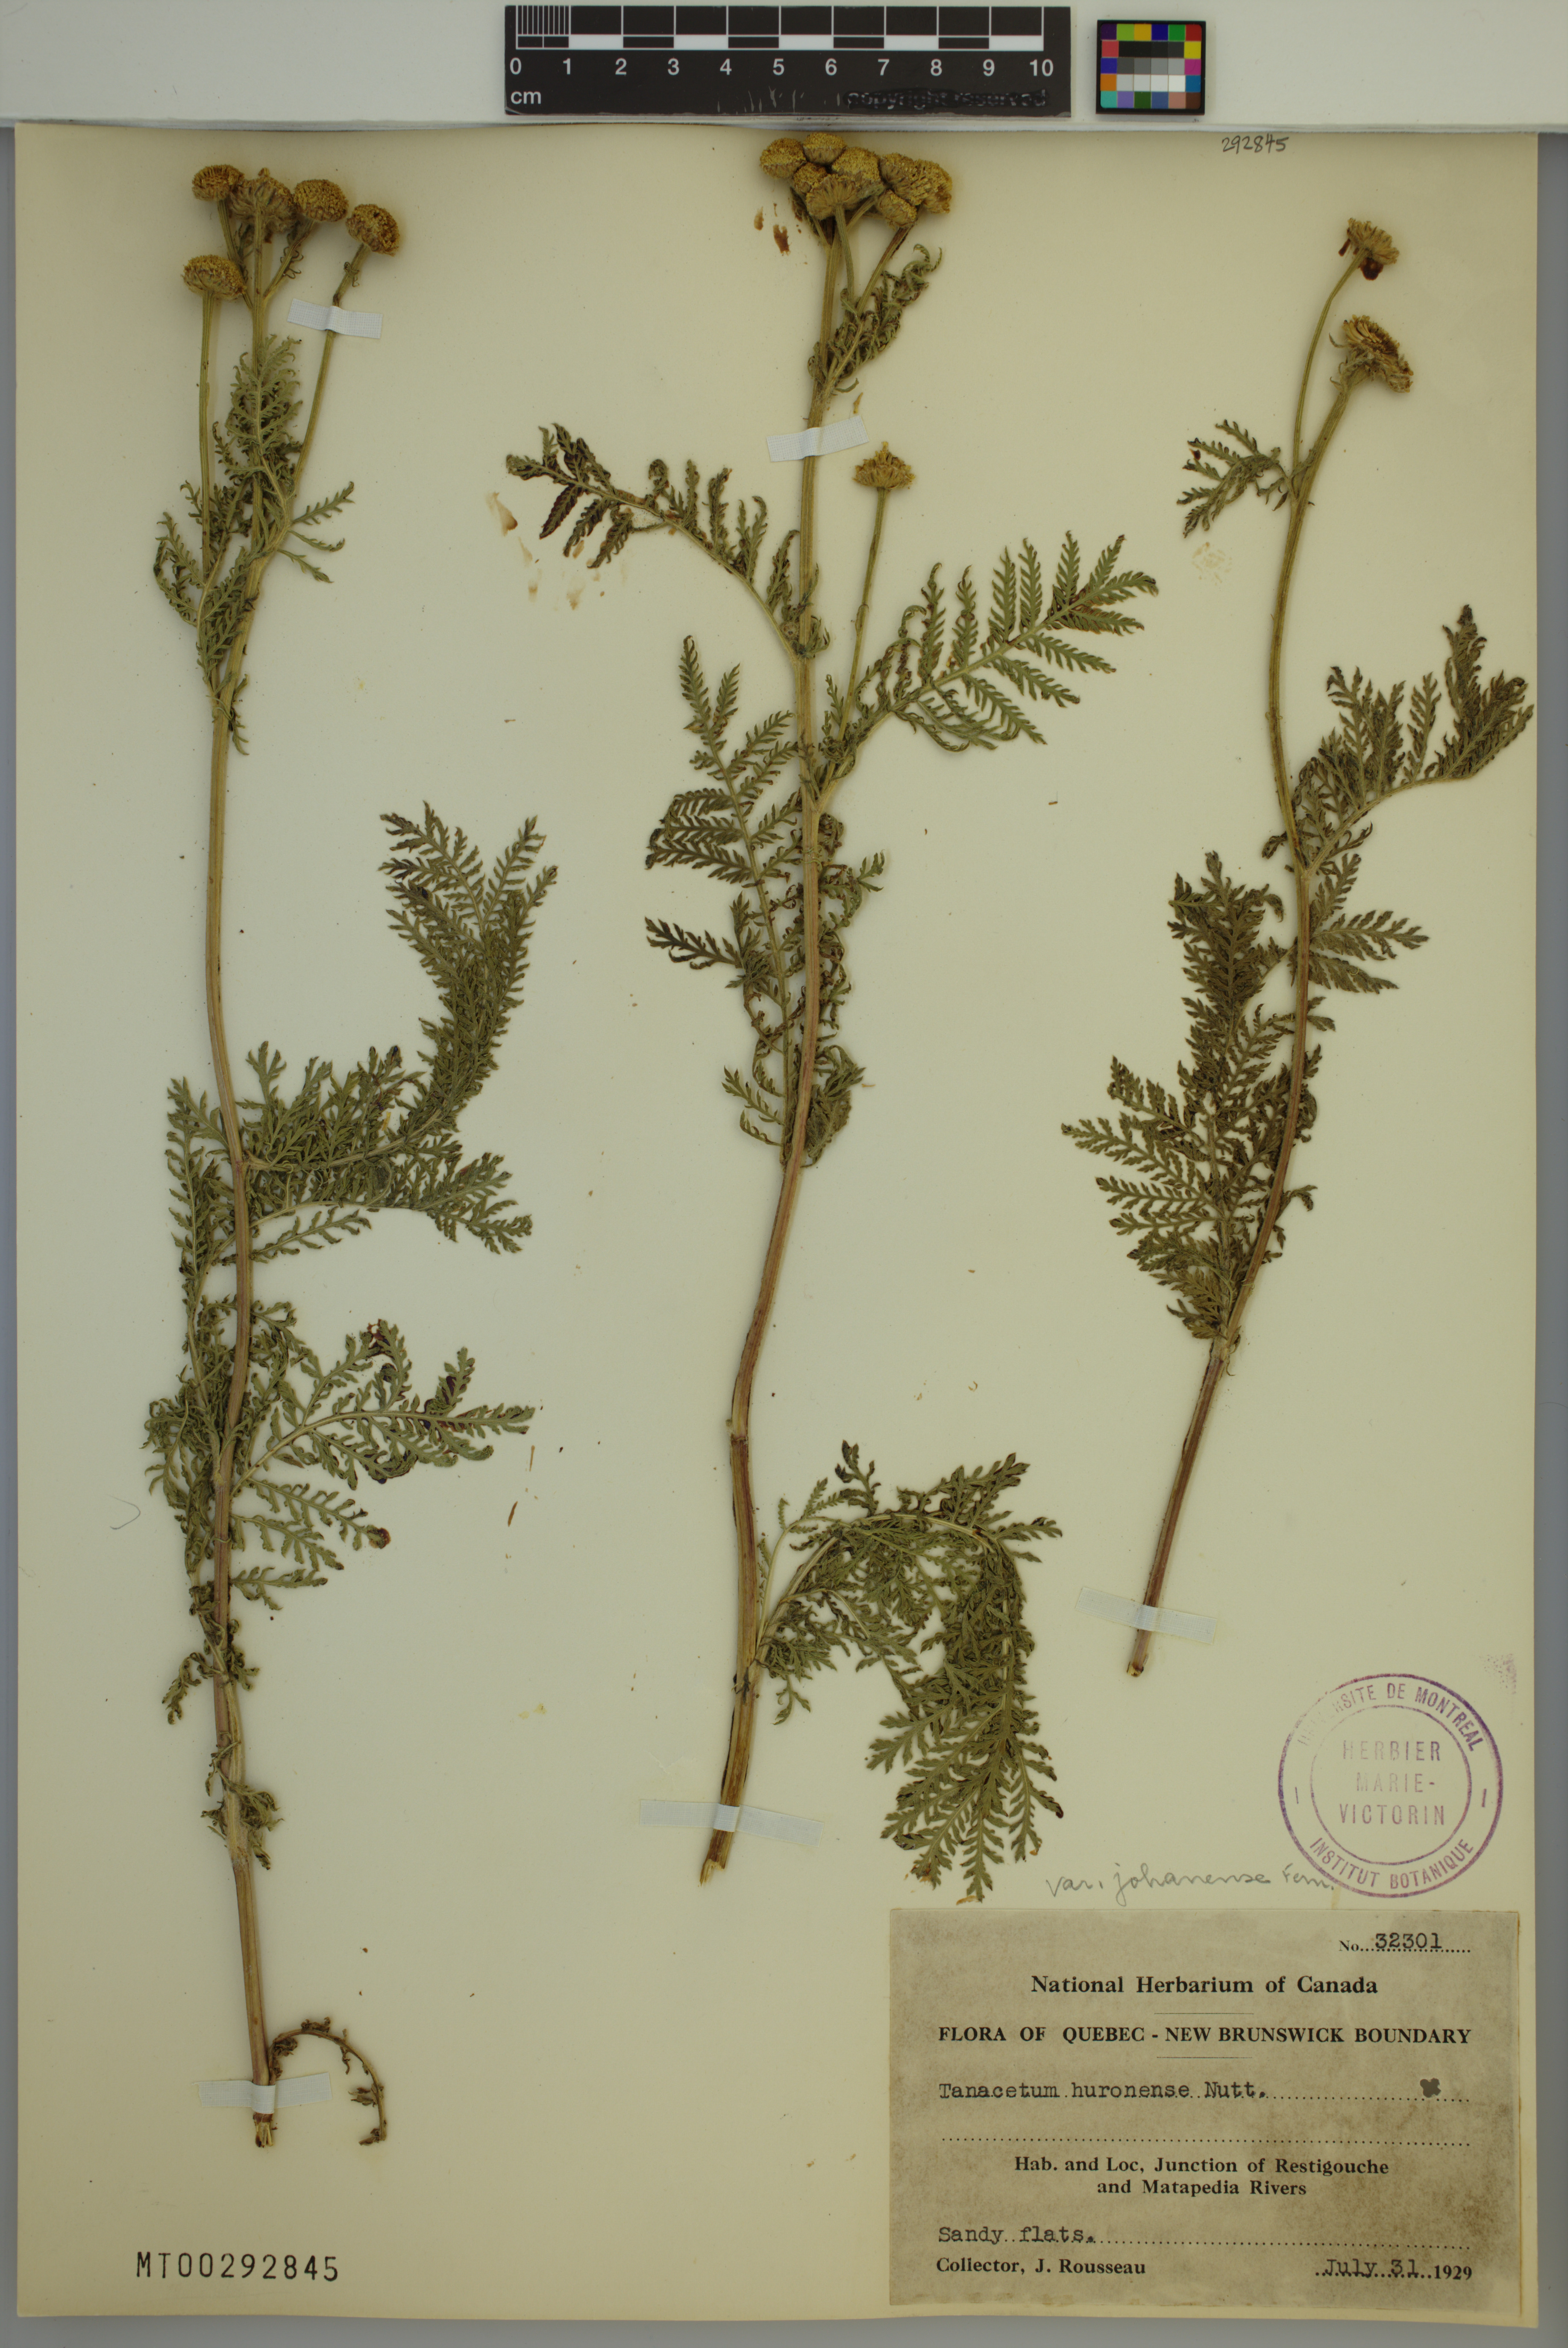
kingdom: Plantae
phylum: Tracheophyta
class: Magnoliopsida
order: Asterales
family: Asteraceae
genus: Tanacetum
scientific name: Tanacetum bipinnatum
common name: Dwarf tansy
